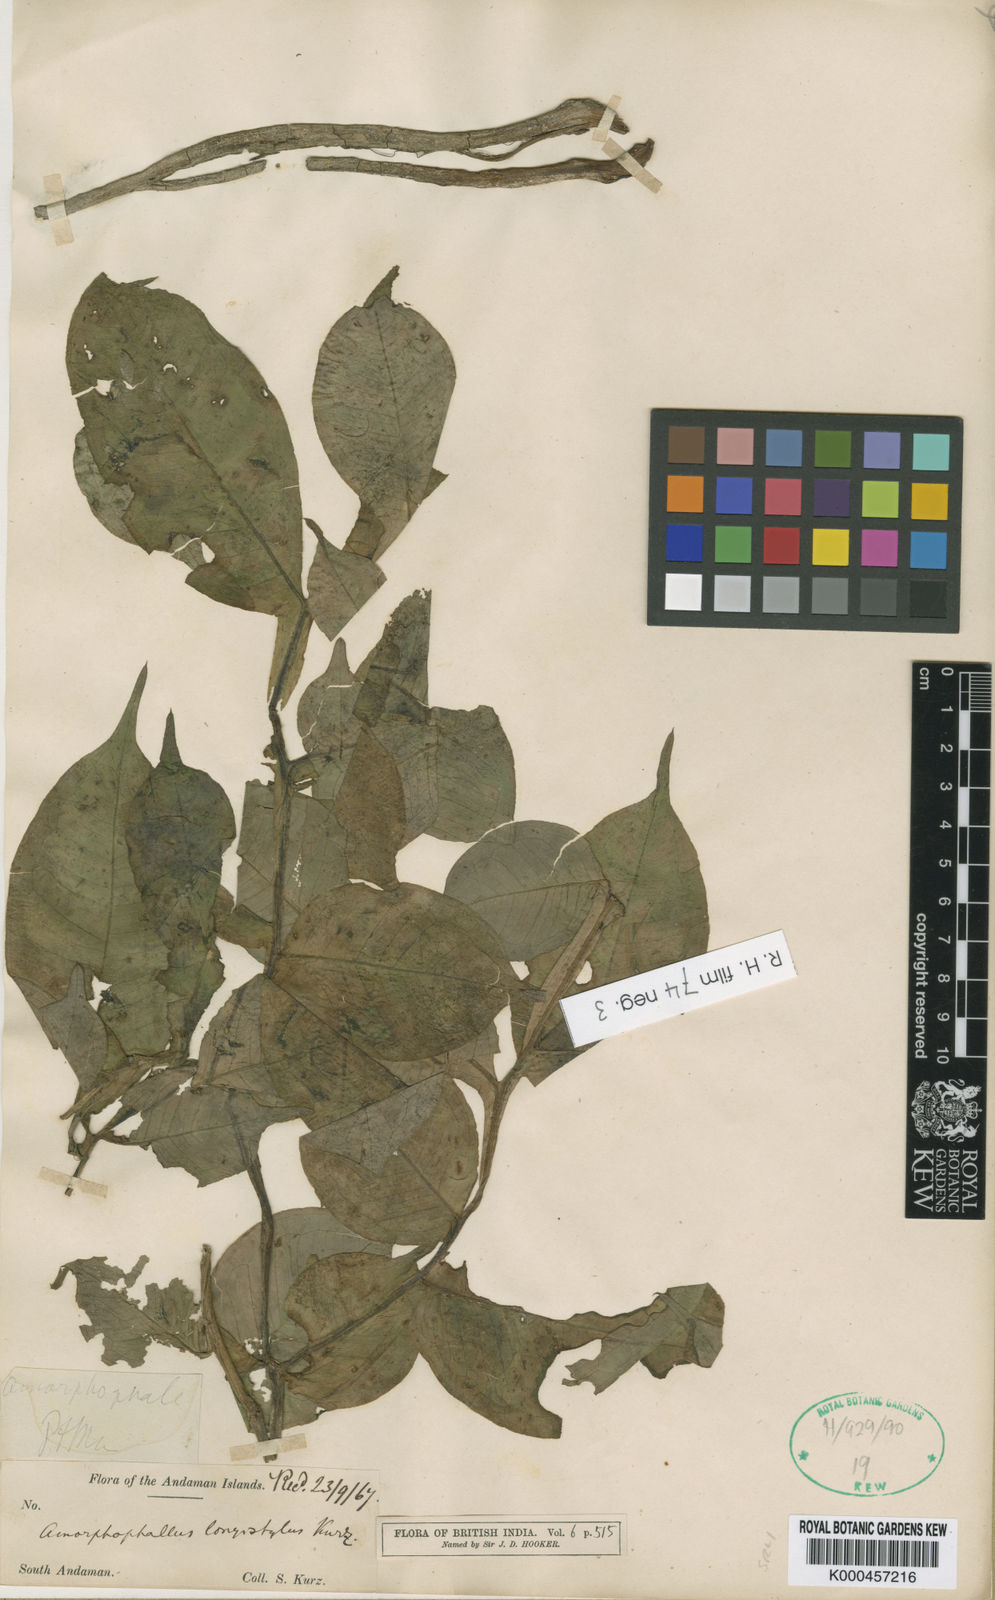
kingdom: Plantae
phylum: Tracheophyta
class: Liliopsida
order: Alismatales
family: Araceae
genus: Amorphophallus
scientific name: Amorphophallus longistylus
